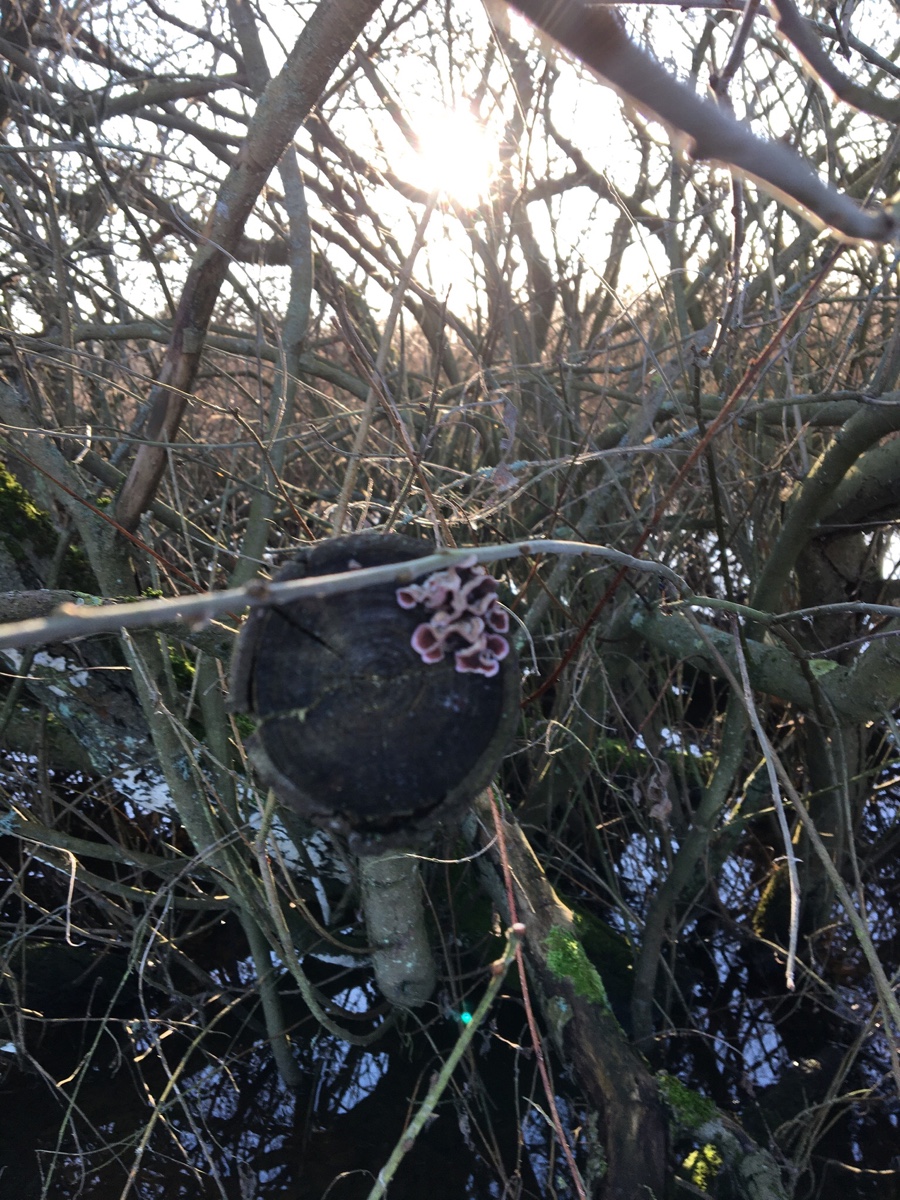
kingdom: Fungi
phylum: Basidiomycota
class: Agaricomycetes
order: Agaricales
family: Cyphellaceae
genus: Chondrostereum
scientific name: Chondrostereum purpureum
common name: purpurlædersvamp
